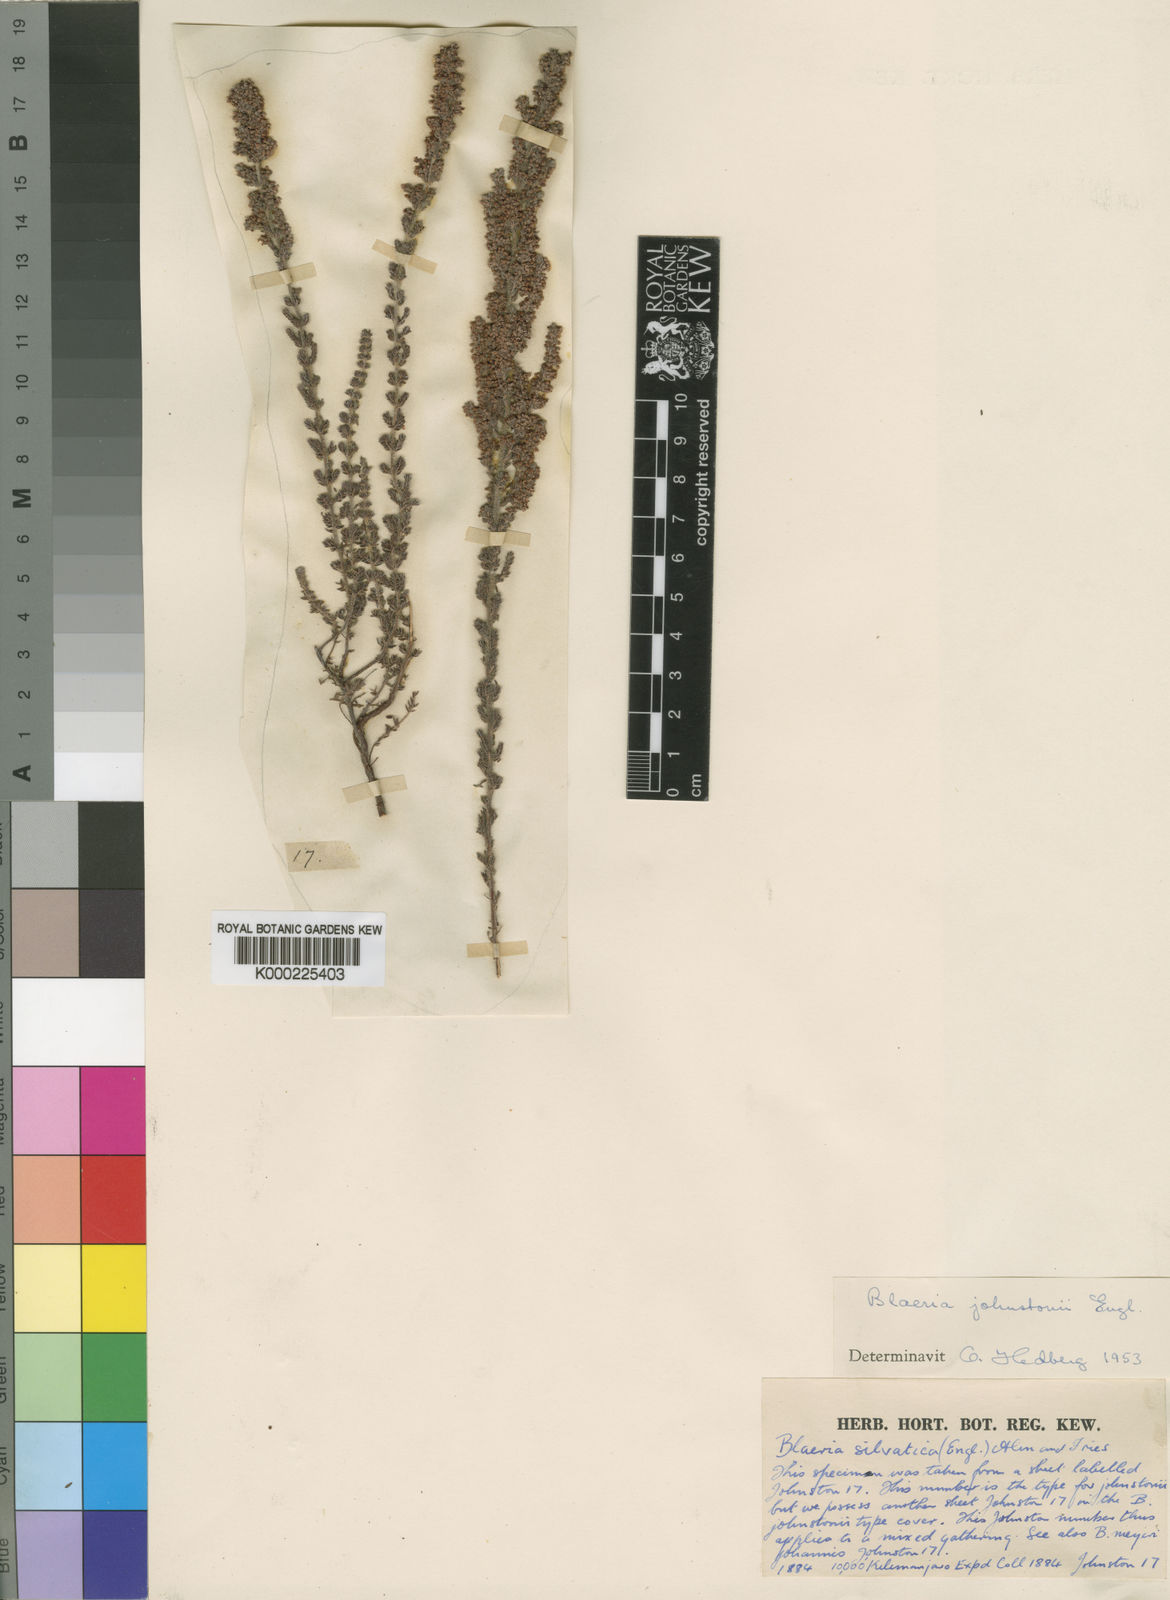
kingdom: Plantae
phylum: Tracheophyta
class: Magnoliopsida
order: Ericales
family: Ericaceae
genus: Erica
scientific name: Erica silvatica
